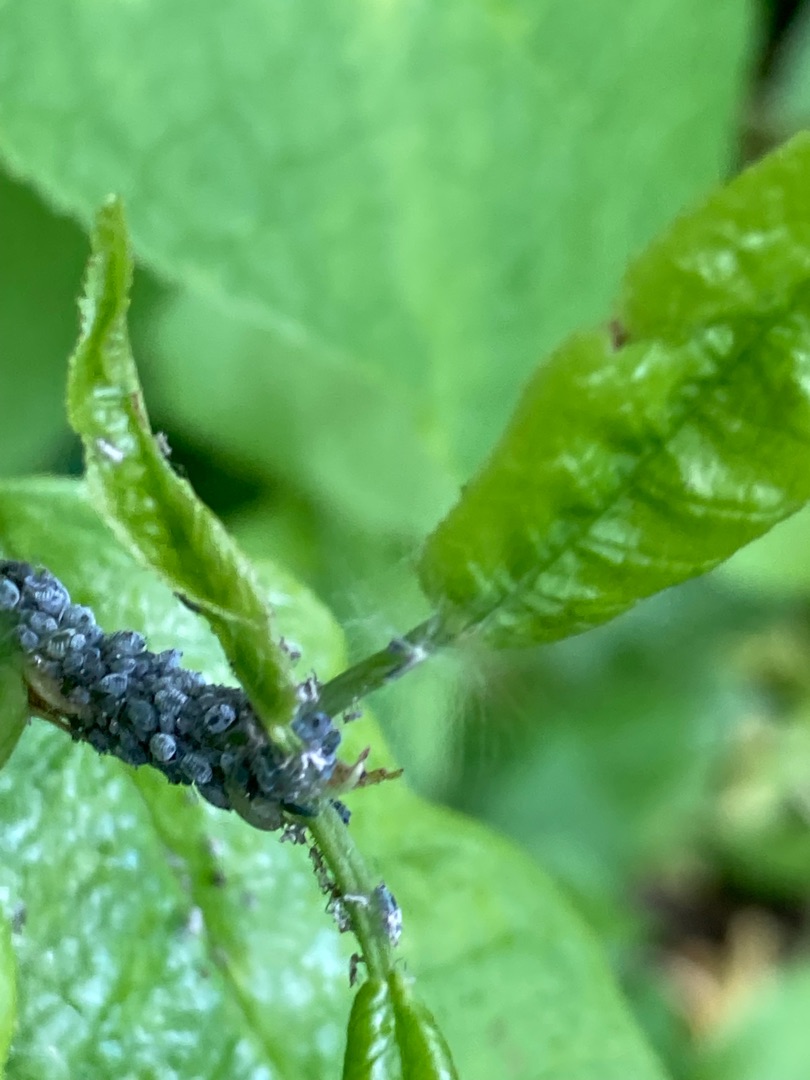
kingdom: Animalia
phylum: Arthropoda
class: Insecta
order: Hemiptera
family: Aphididae
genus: Rhopalosiphum
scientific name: Rhopalosiphum padi
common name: Havrebladlus
